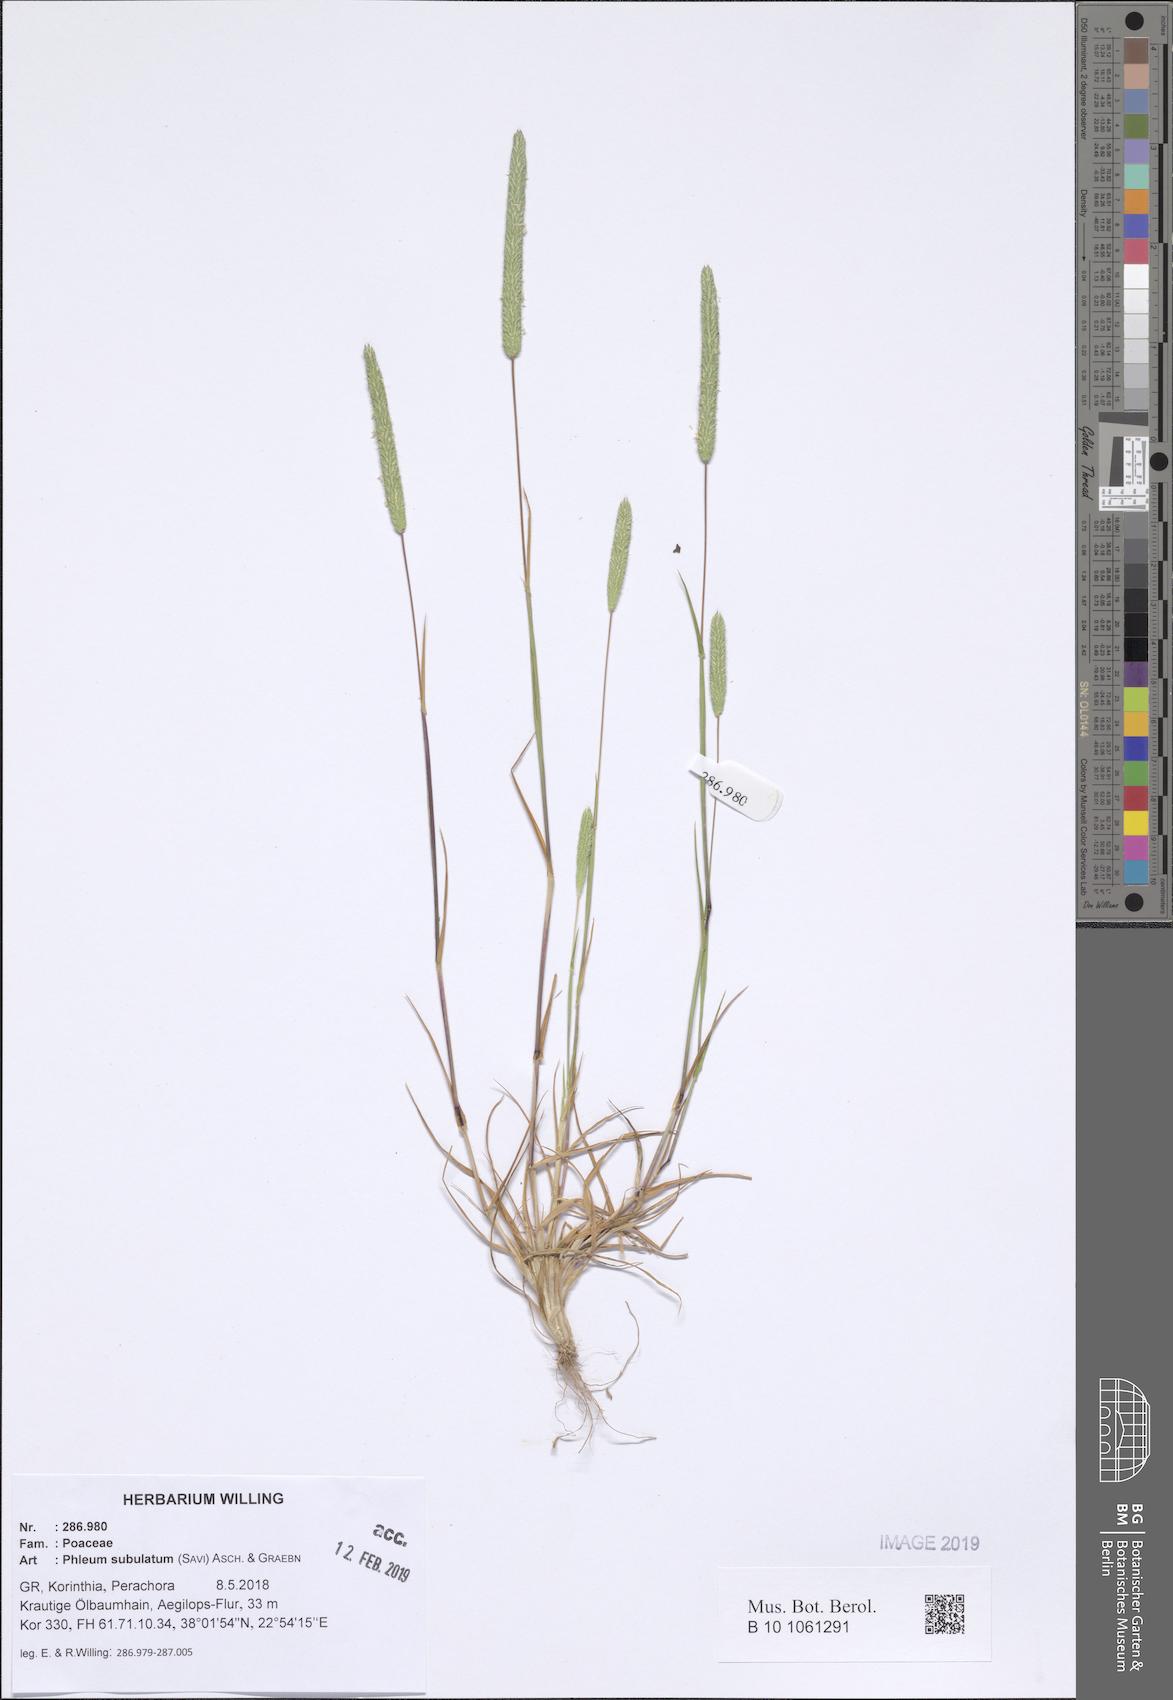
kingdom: Plantae
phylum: Tracheophyta
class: Liliopsida
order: Poales
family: Poaceae
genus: Phleum
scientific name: Phleum subulatum
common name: Italian timothy
